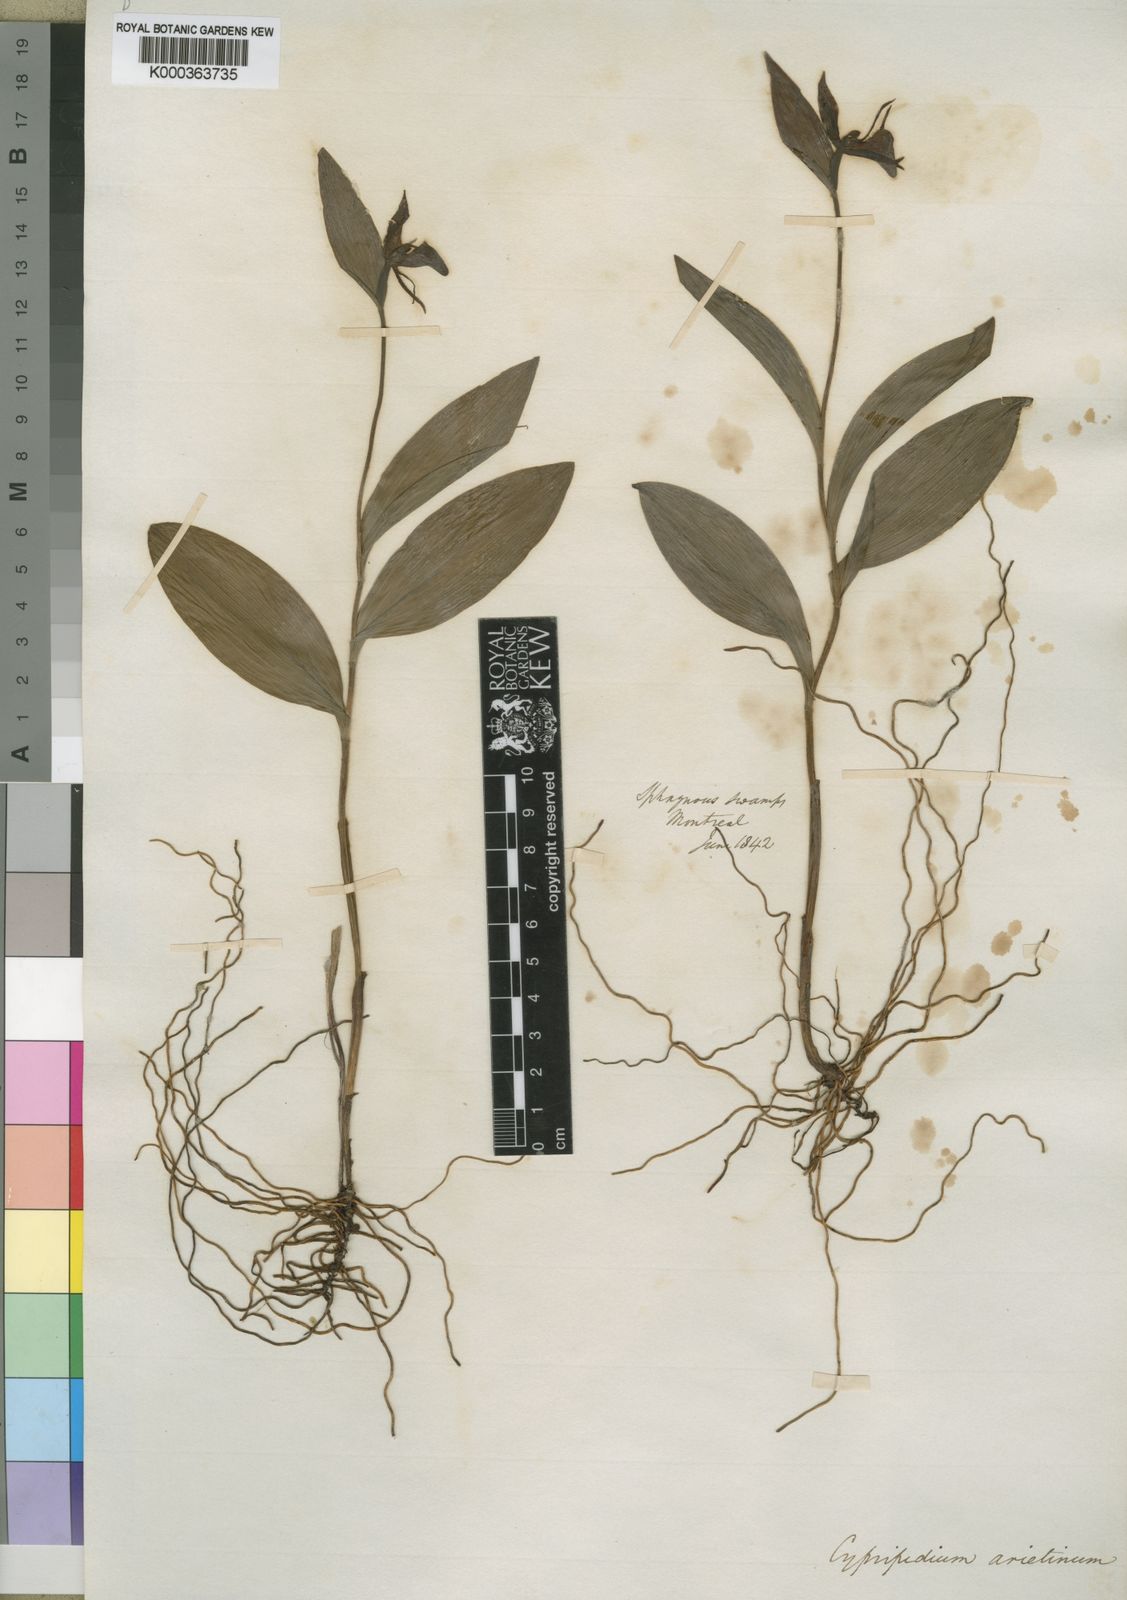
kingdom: Plantae
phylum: Tracheophyta
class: Liliopsida
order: Asparagales
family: Orchidaceae
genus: Cypripedium
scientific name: Cypripedium arietinum
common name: Ram's-head
